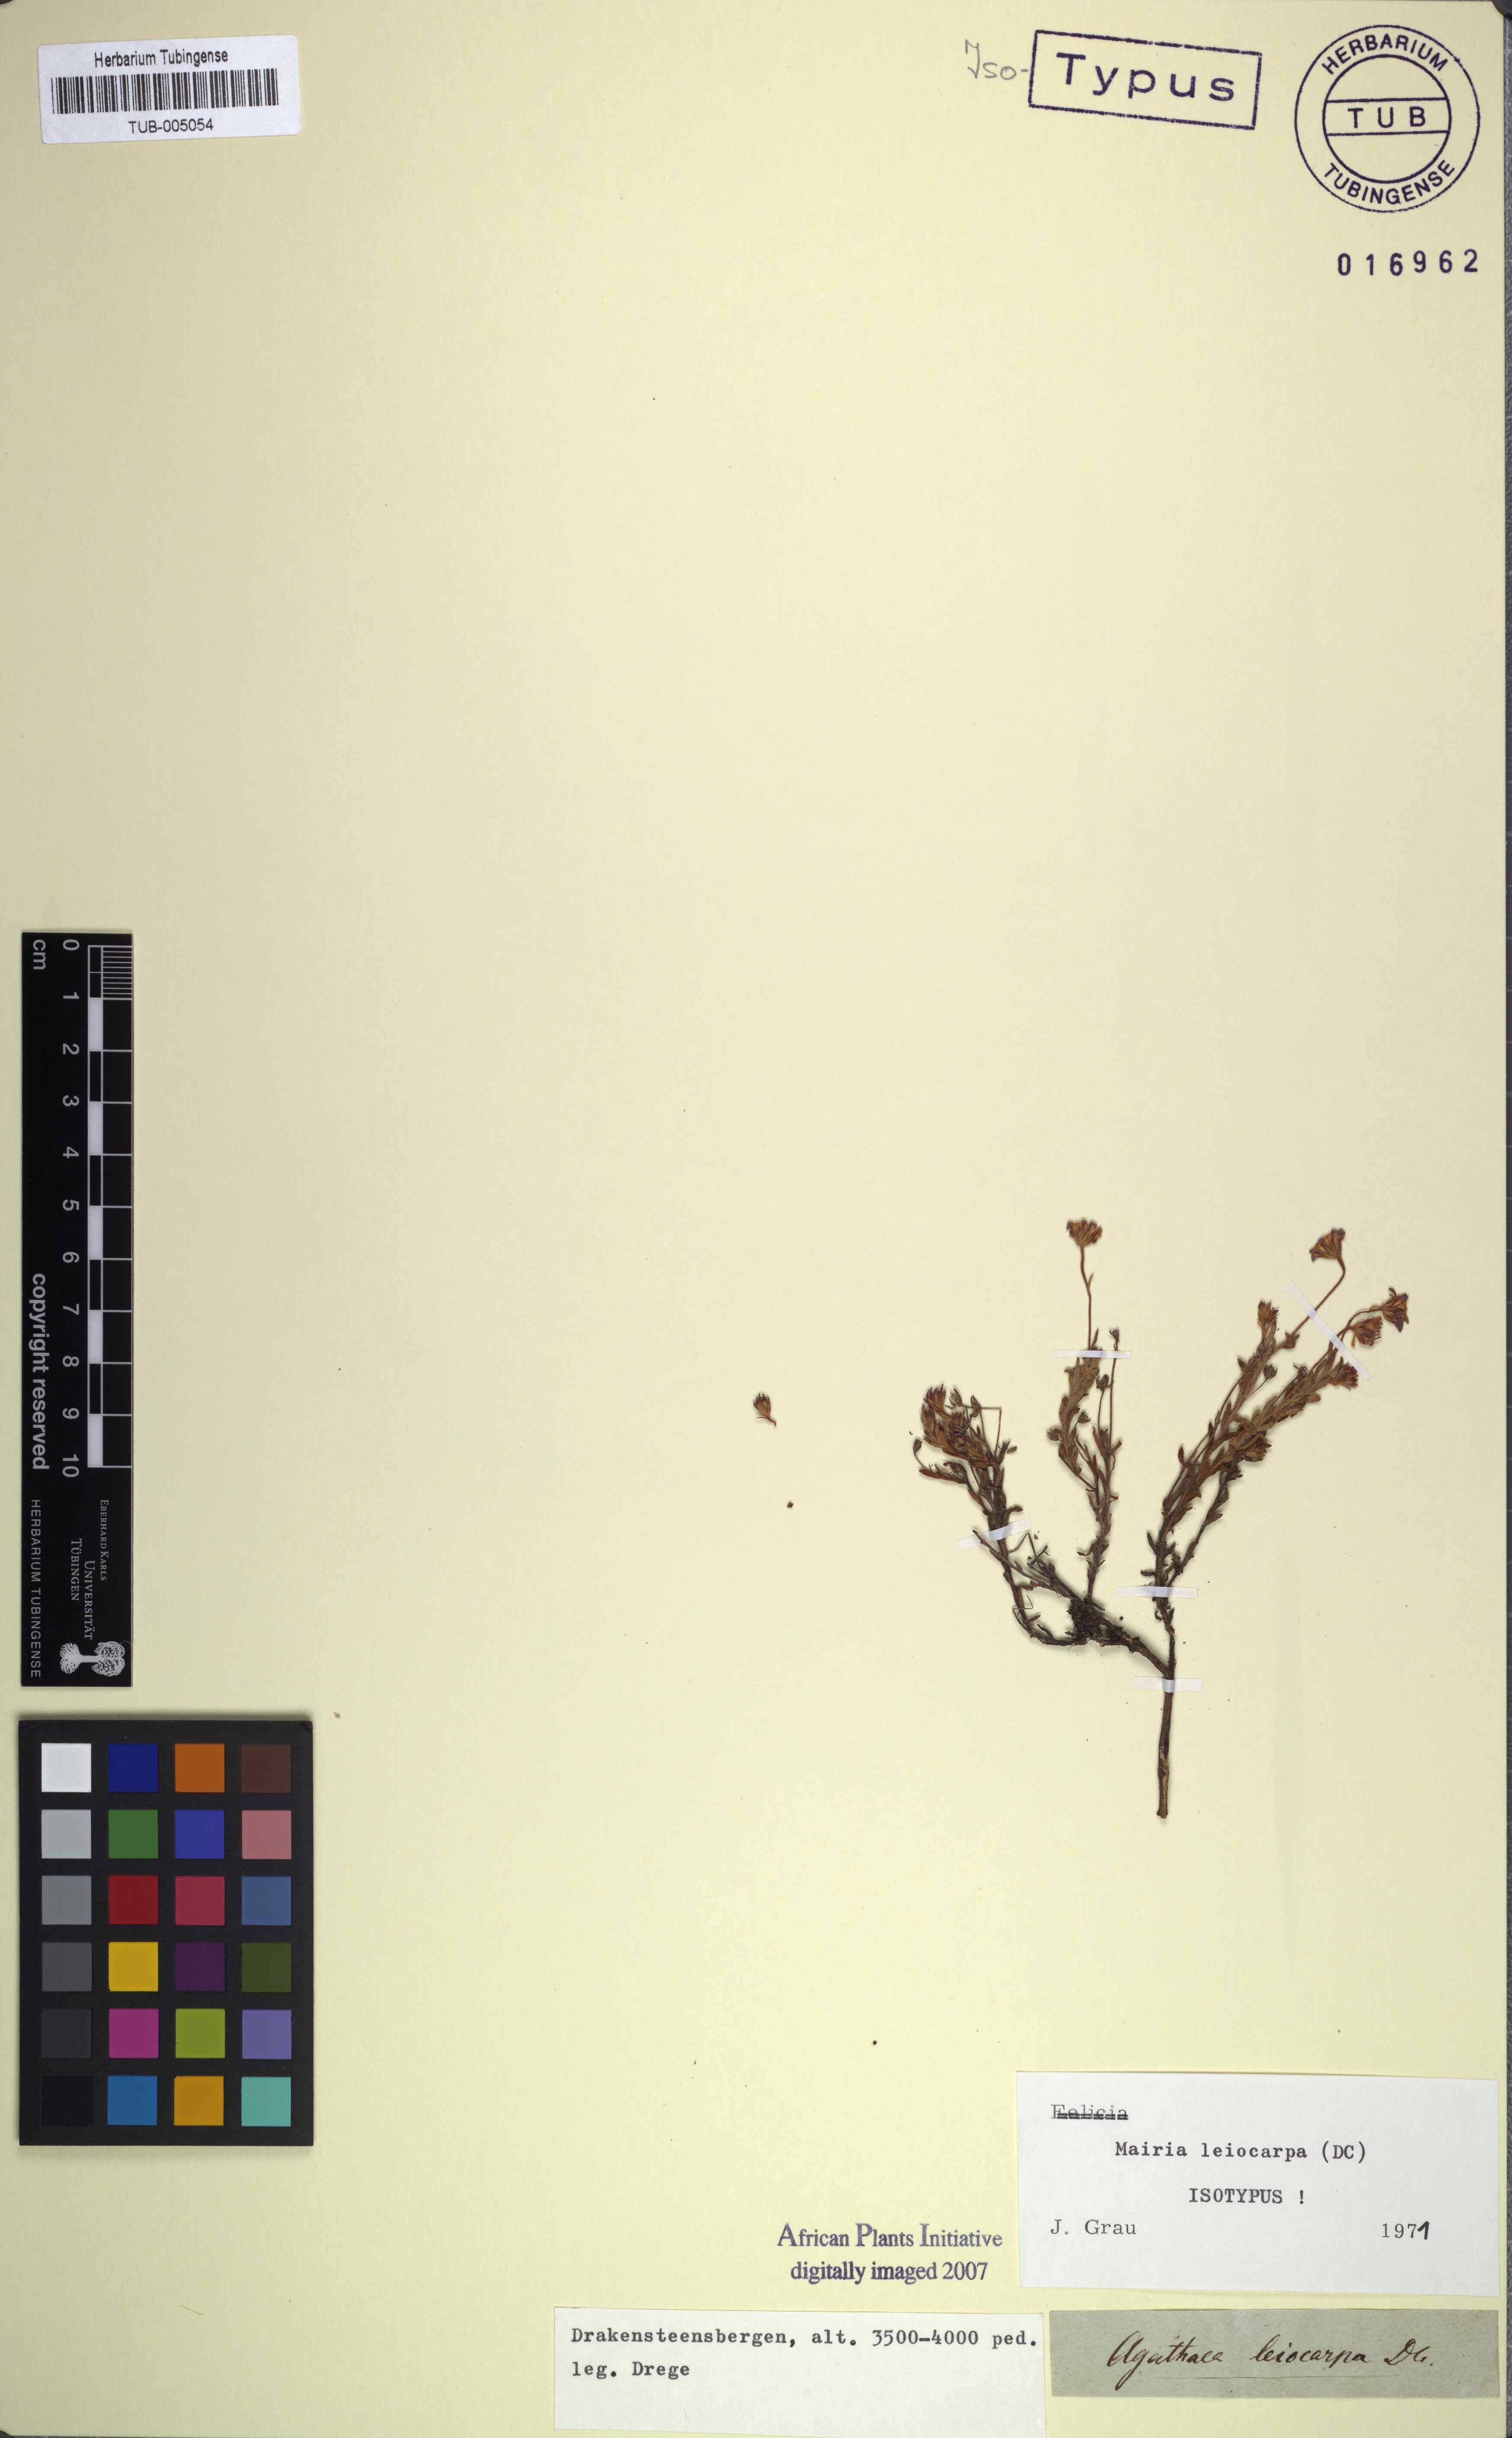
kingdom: Plantae
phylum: Tracheophyta
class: Magnoliopsida
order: Asterales
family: Asteraceae
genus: Mairia
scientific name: Mairia
